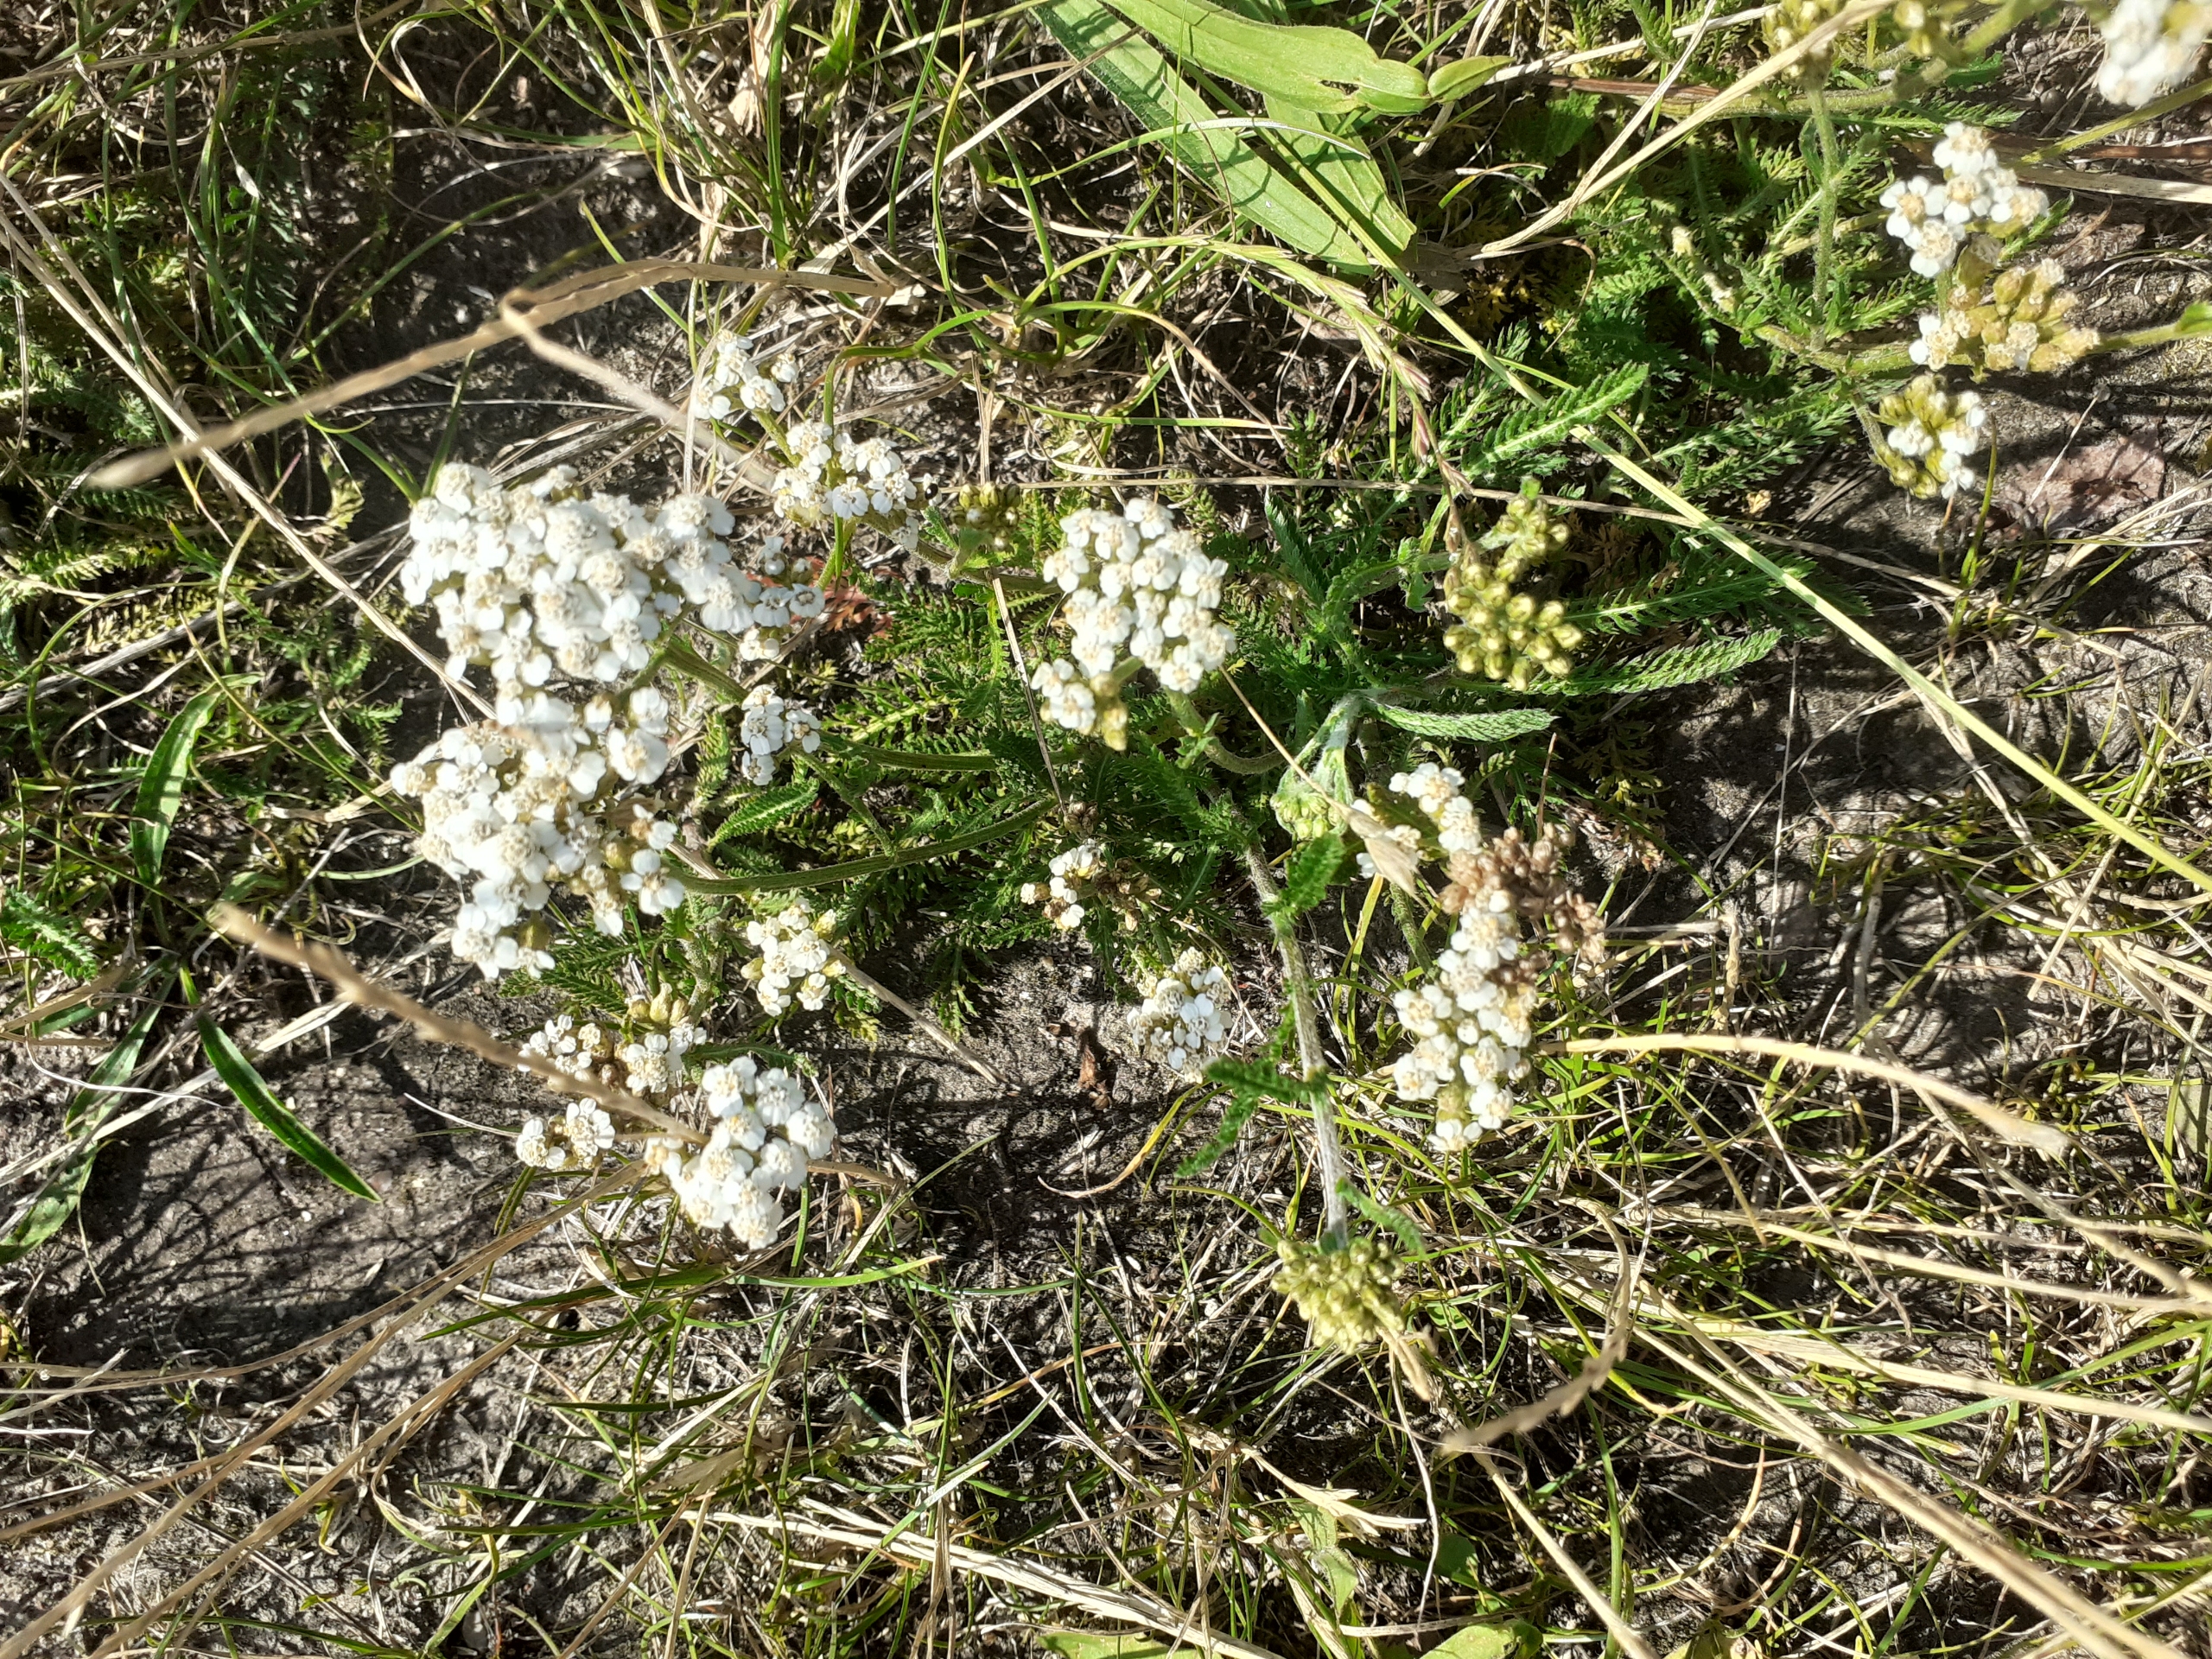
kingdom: Plantae
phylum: Tracheophyta
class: Magnoliopsida
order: Asterales
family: Asteraceae
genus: Achillea
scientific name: Achillea millefolium
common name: Almindelig røllike
